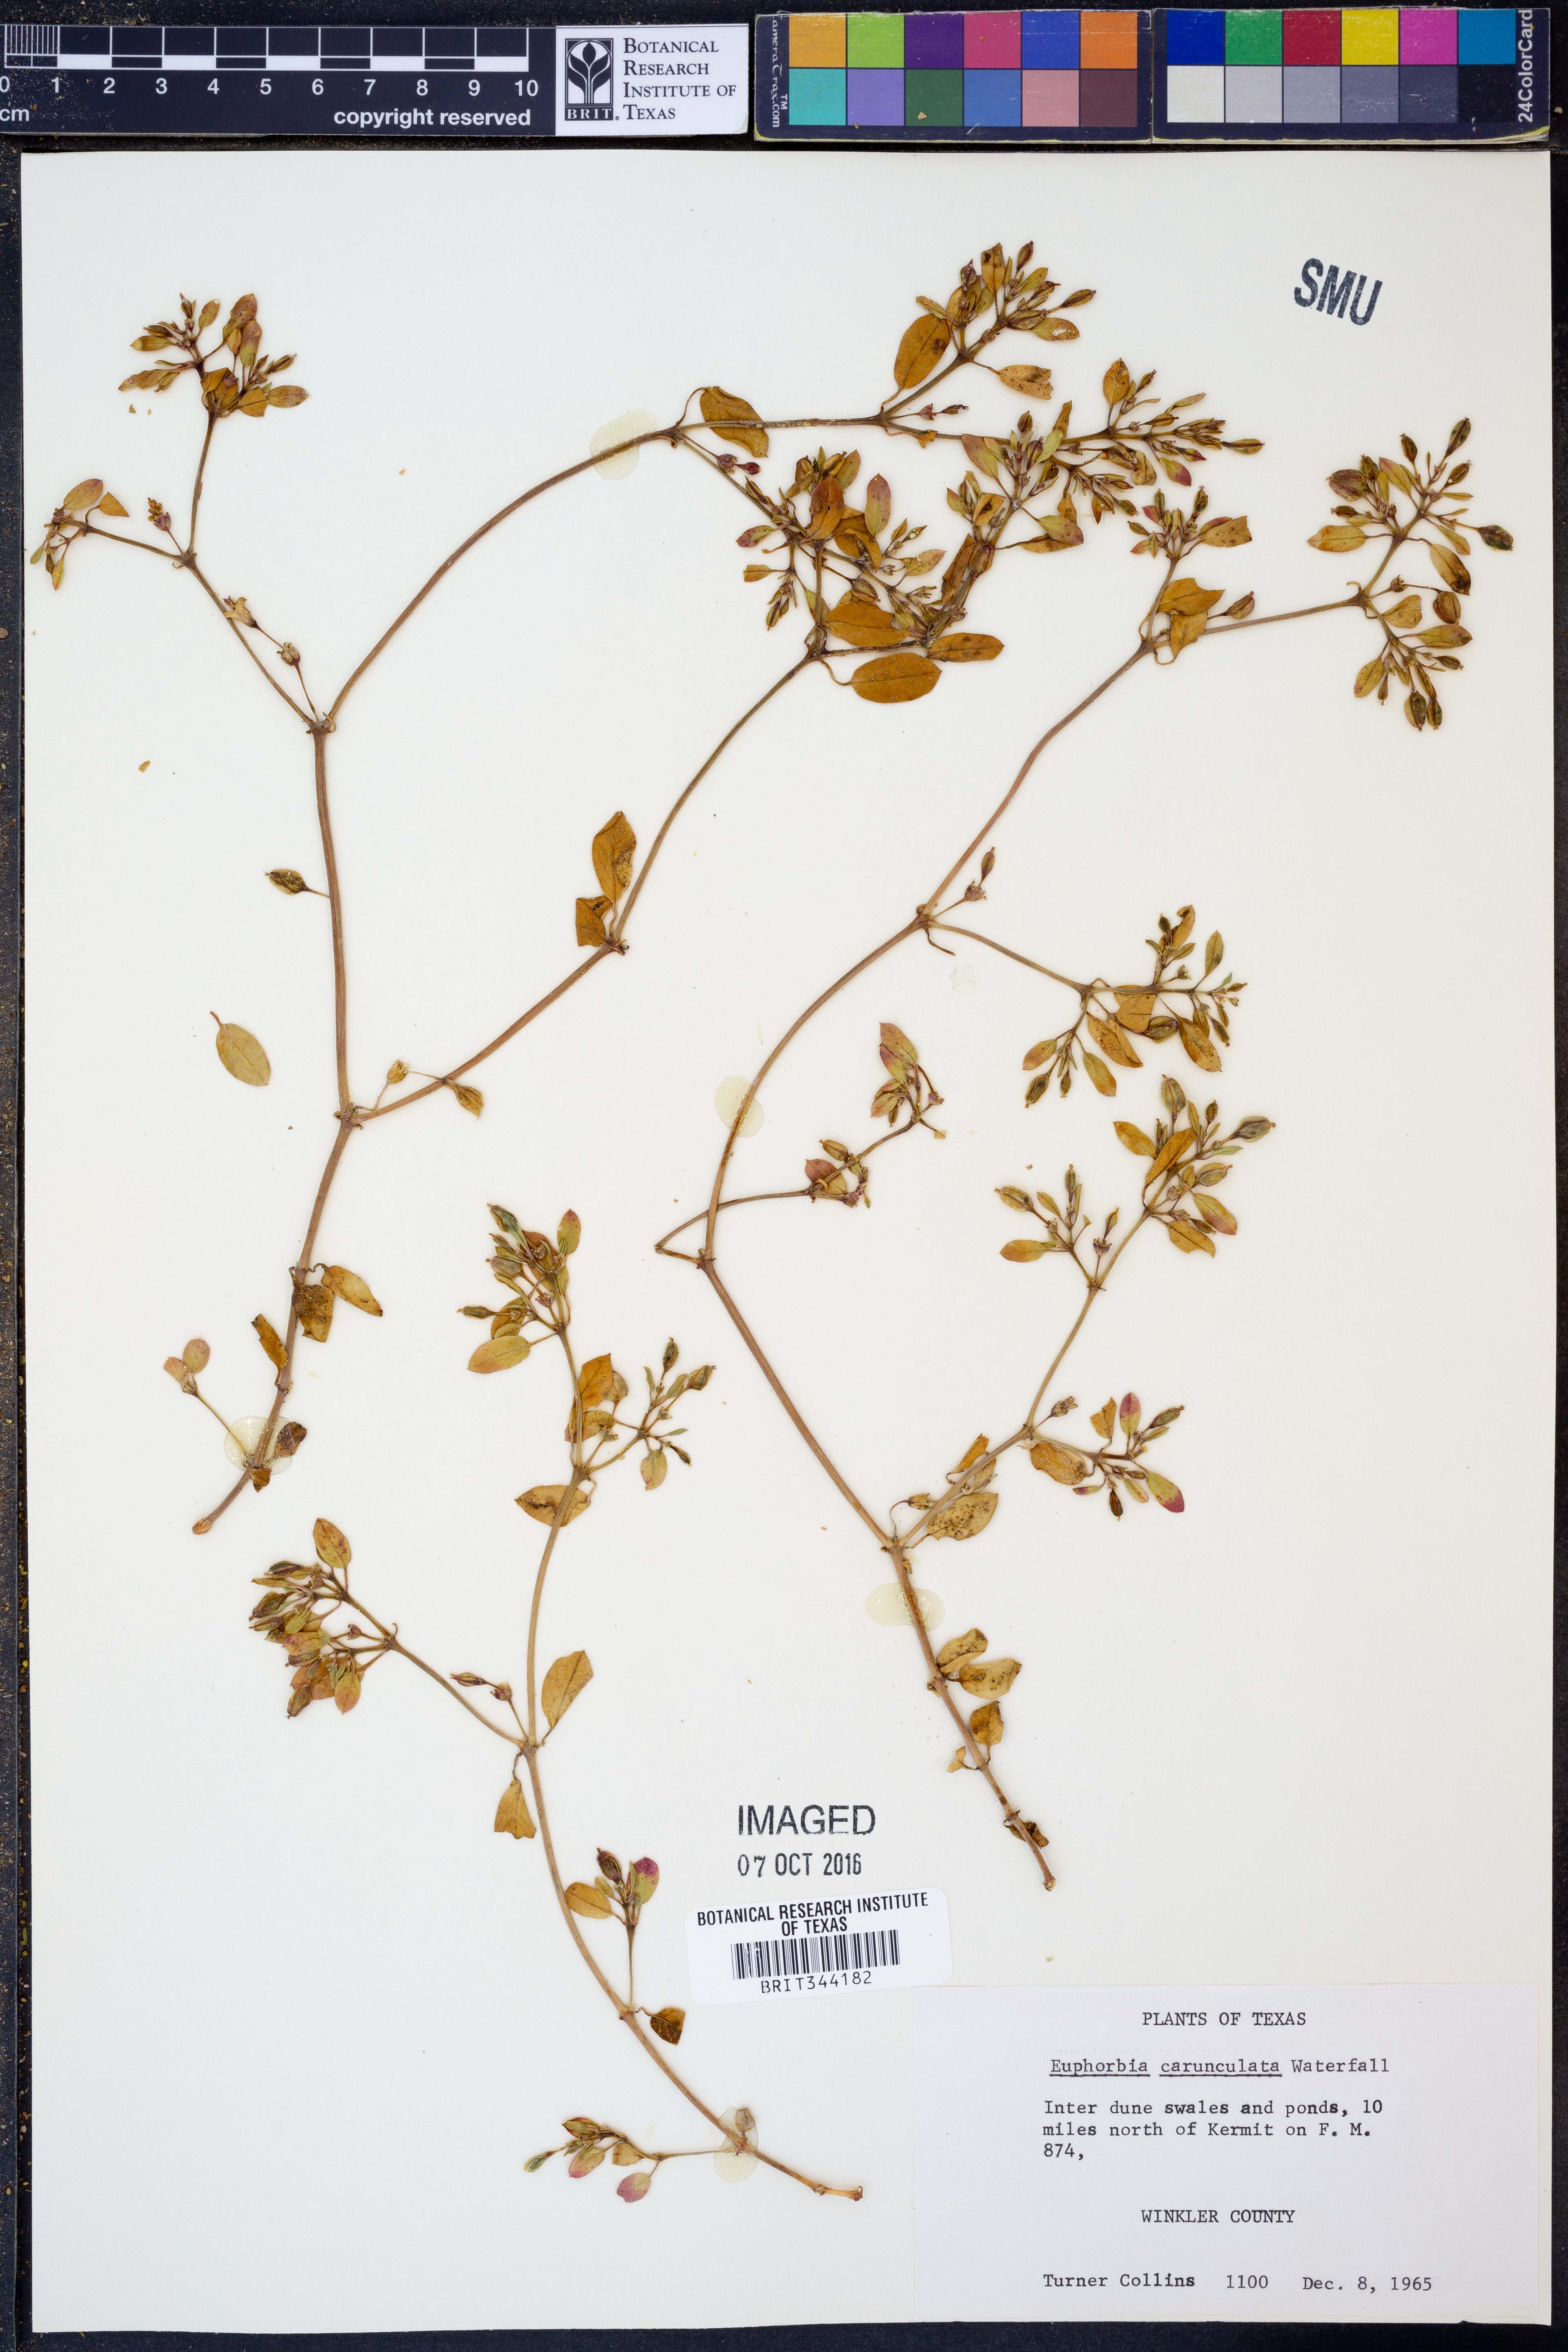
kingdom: Plantae
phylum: Tracheophyta
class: Magnoliopsida
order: Malpighiales
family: Euphorbiaceae
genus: Euphorbia
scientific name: Euphorbia carunculata
